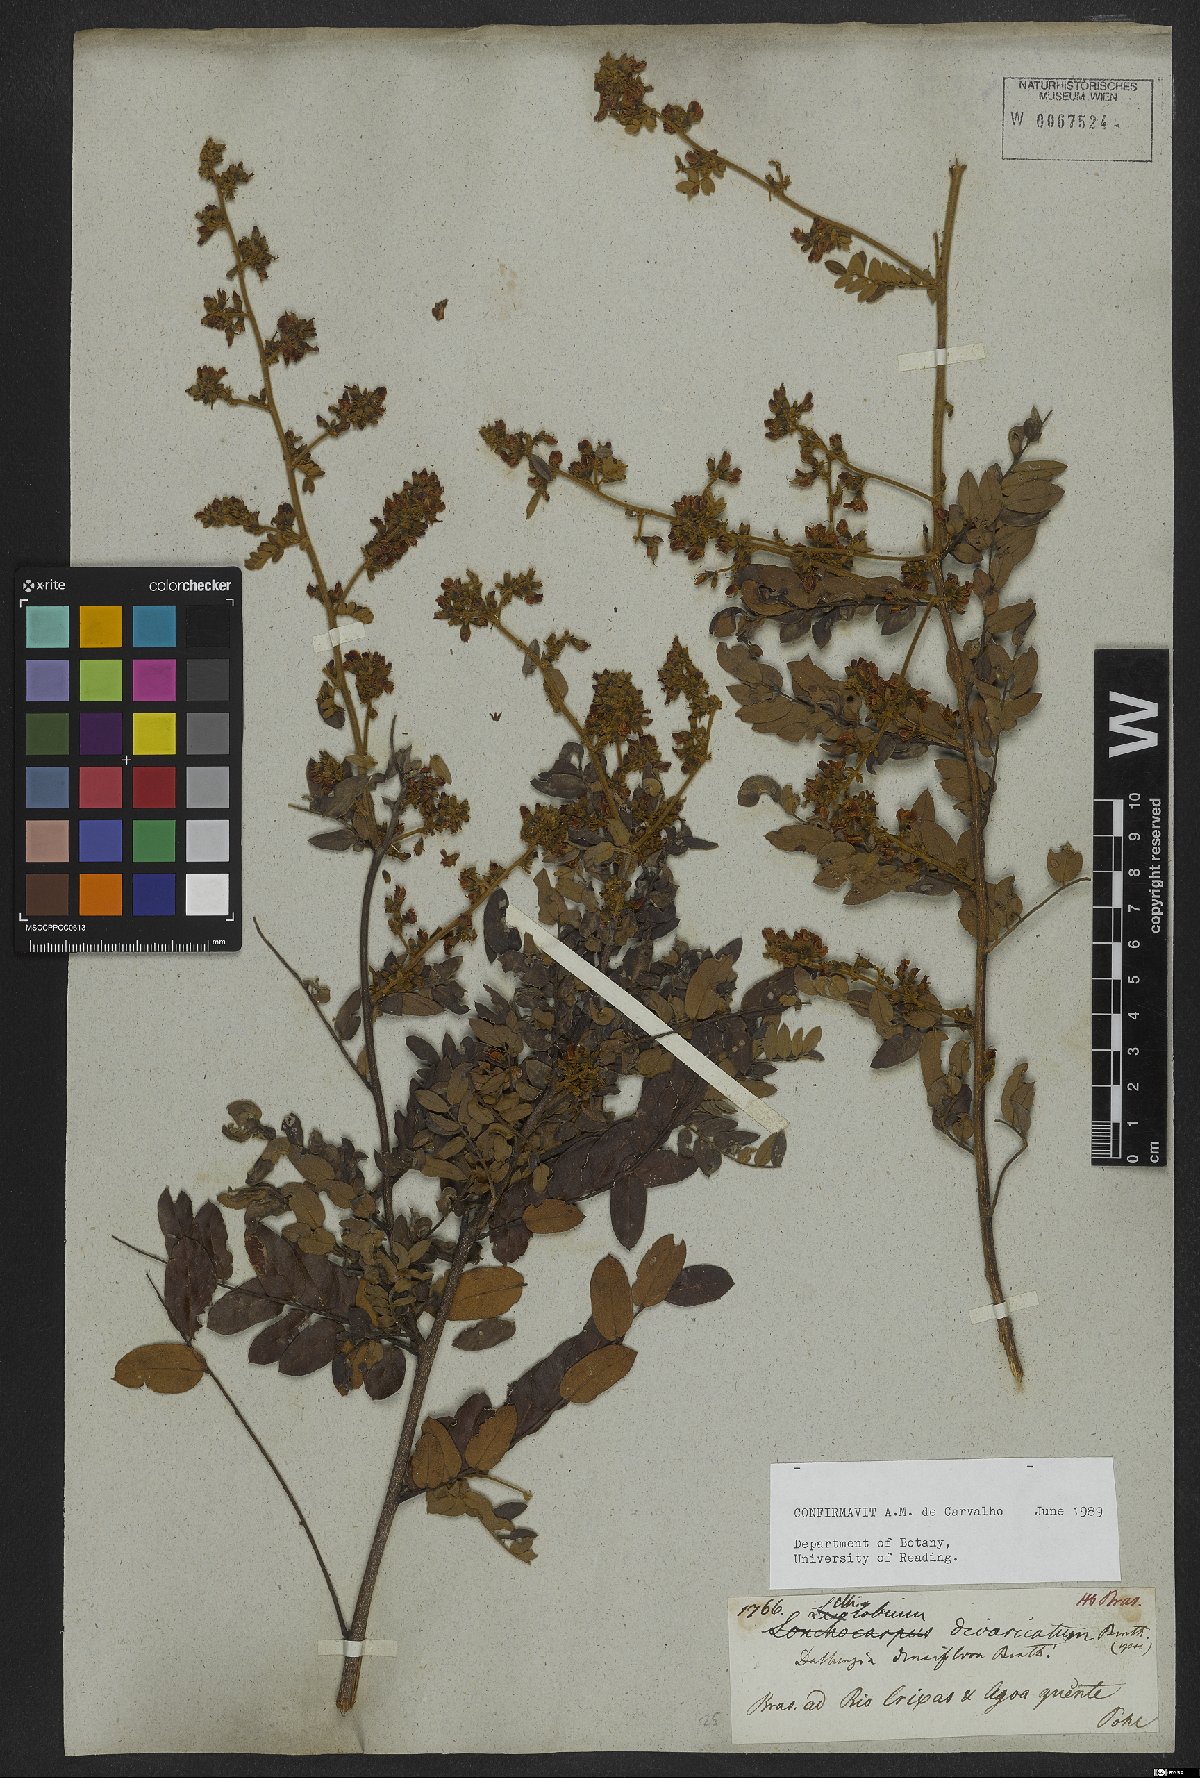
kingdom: Plantae
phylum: Tracheophyta
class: Magnoliopsida
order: Fabales
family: Fabaceae
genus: Dalbergia
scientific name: Dalbergia densiflora
